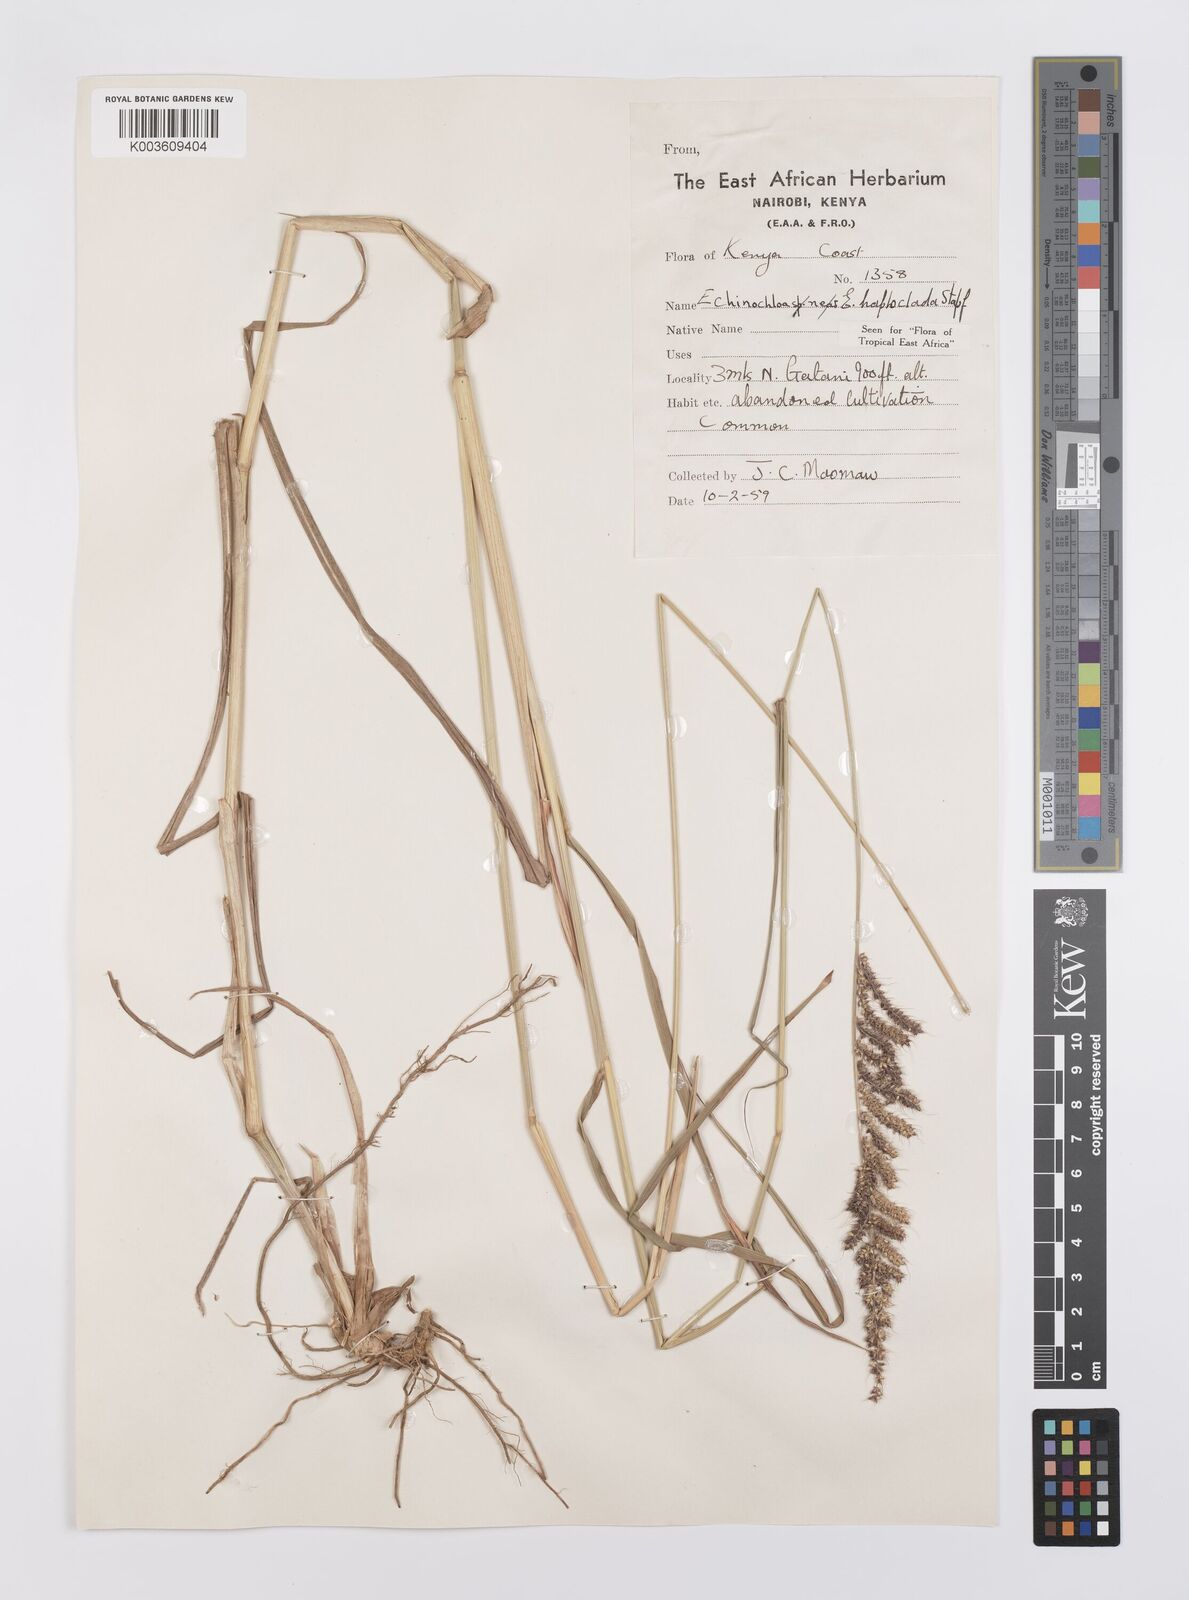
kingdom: Plantae
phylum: Tracheophyta
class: Liliopsida
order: Poales
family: Poaceae
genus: Echinochloa
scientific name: Echinochloa haploclada
